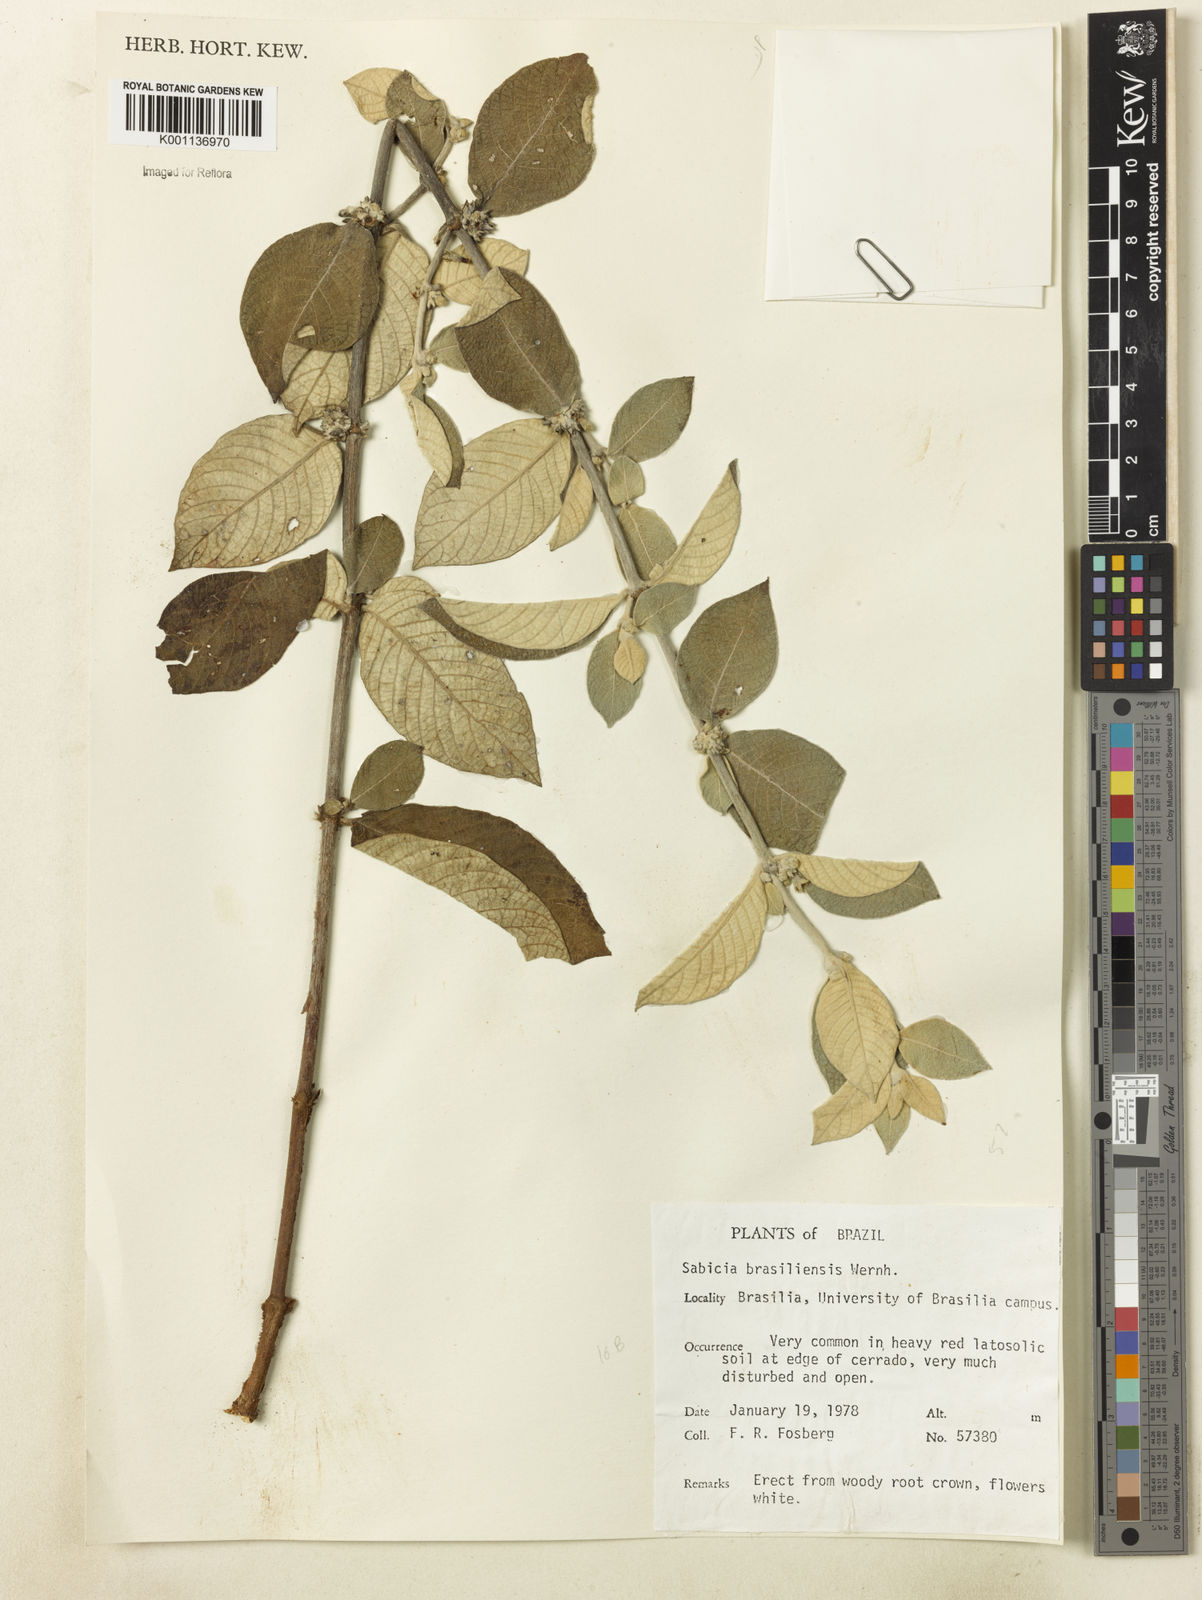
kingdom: Plantae
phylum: Tracheophyta
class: Magnoliopsida
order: Gentianales
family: Rubiaceae
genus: Sabicea
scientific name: Sabicea brasiliensis
